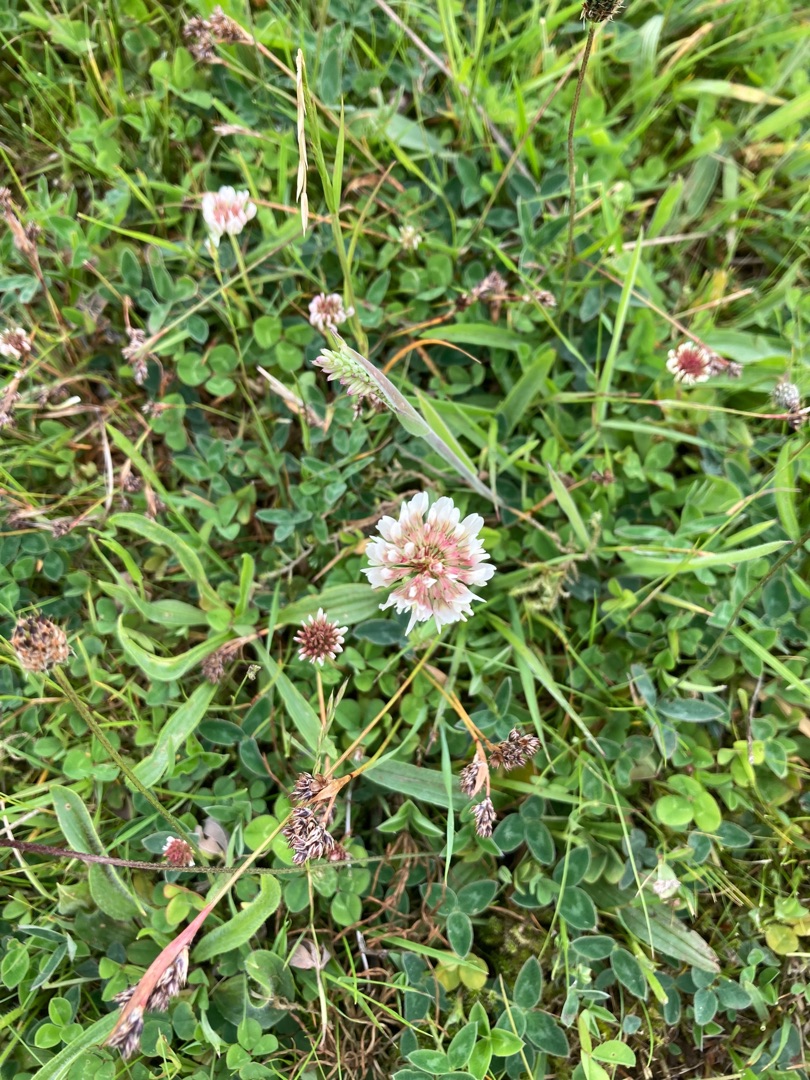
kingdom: Plantae
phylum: Tracheophyta
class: Magnoliopsida
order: Fabales
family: Fabaceae
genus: Trifolium
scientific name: Trifolium repens
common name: Hvid-kløver
